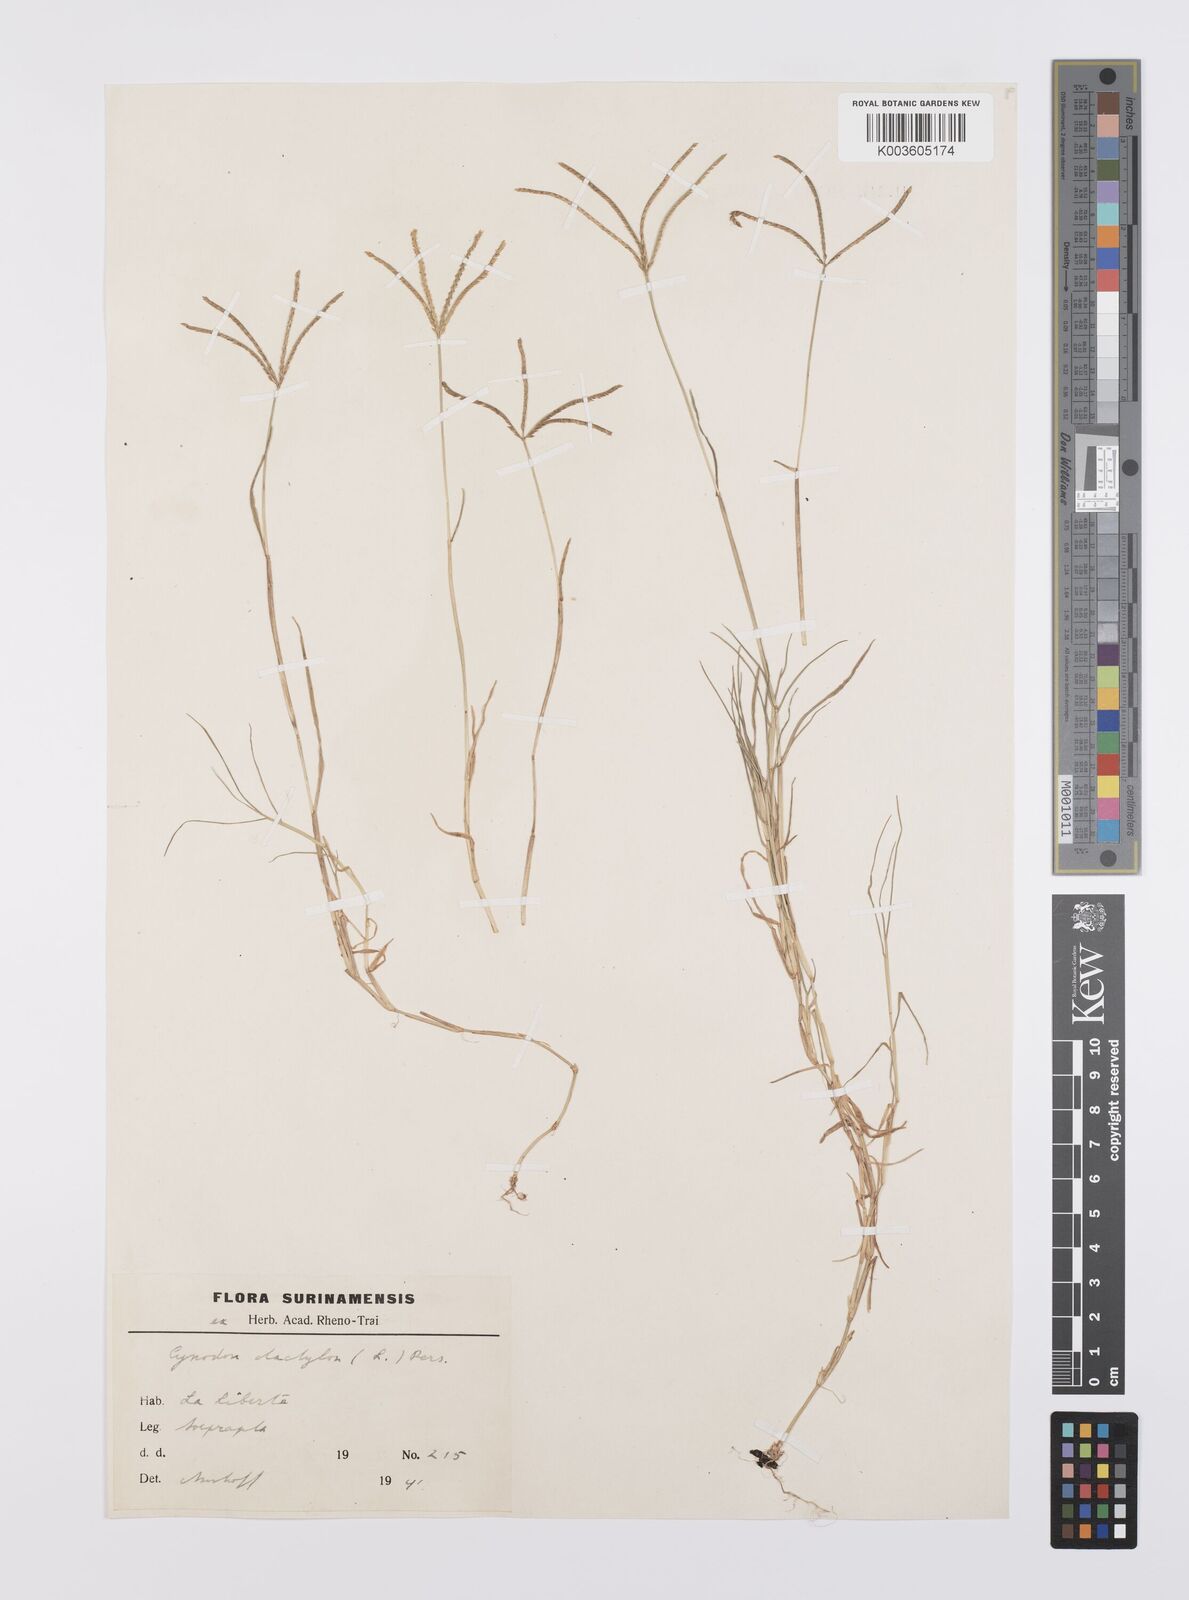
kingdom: Plantae
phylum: Tracheophyta
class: Liliopsida
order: Poales
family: Poaceae
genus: Cynodon
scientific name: Cynodon dactylon
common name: Bermuda grass
